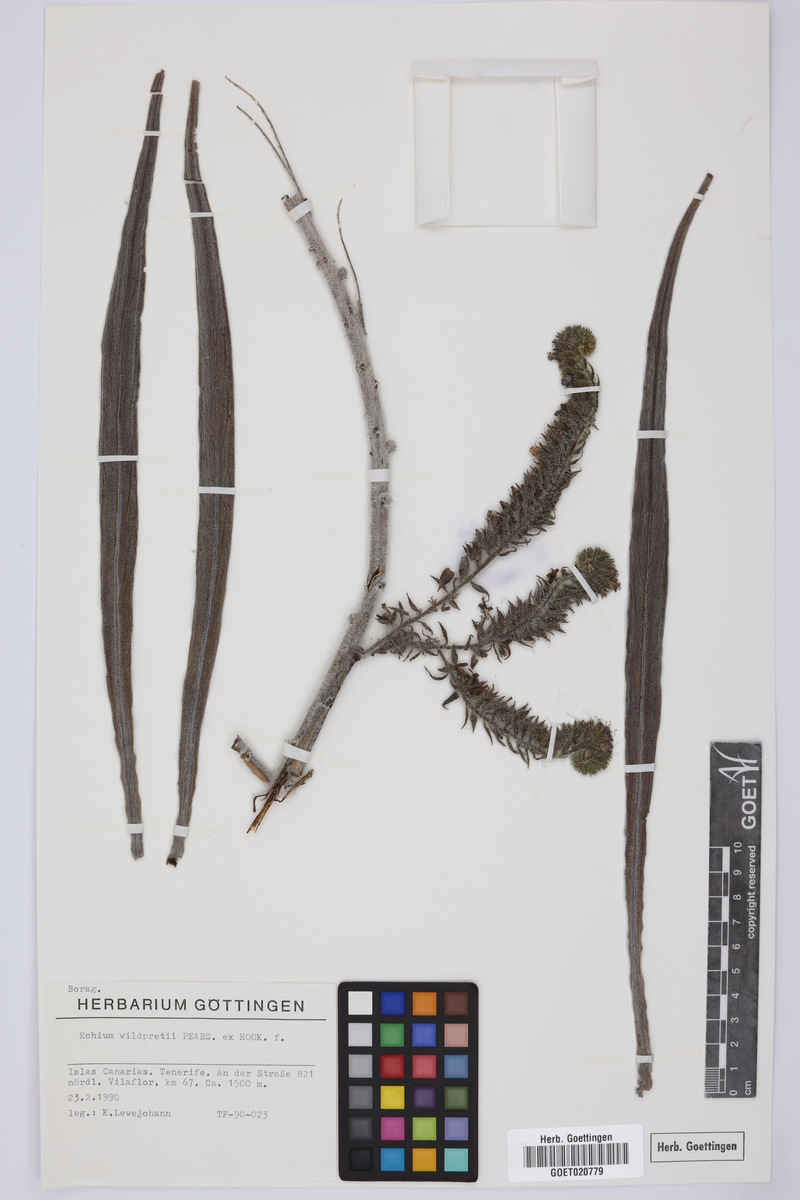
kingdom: Plantae
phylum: Tracheophyta
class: Magnoliopsida
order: Boraginales
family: Boraginaceae
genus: Echium
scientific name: Echium wildpretii
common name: Tower-of-jewels
